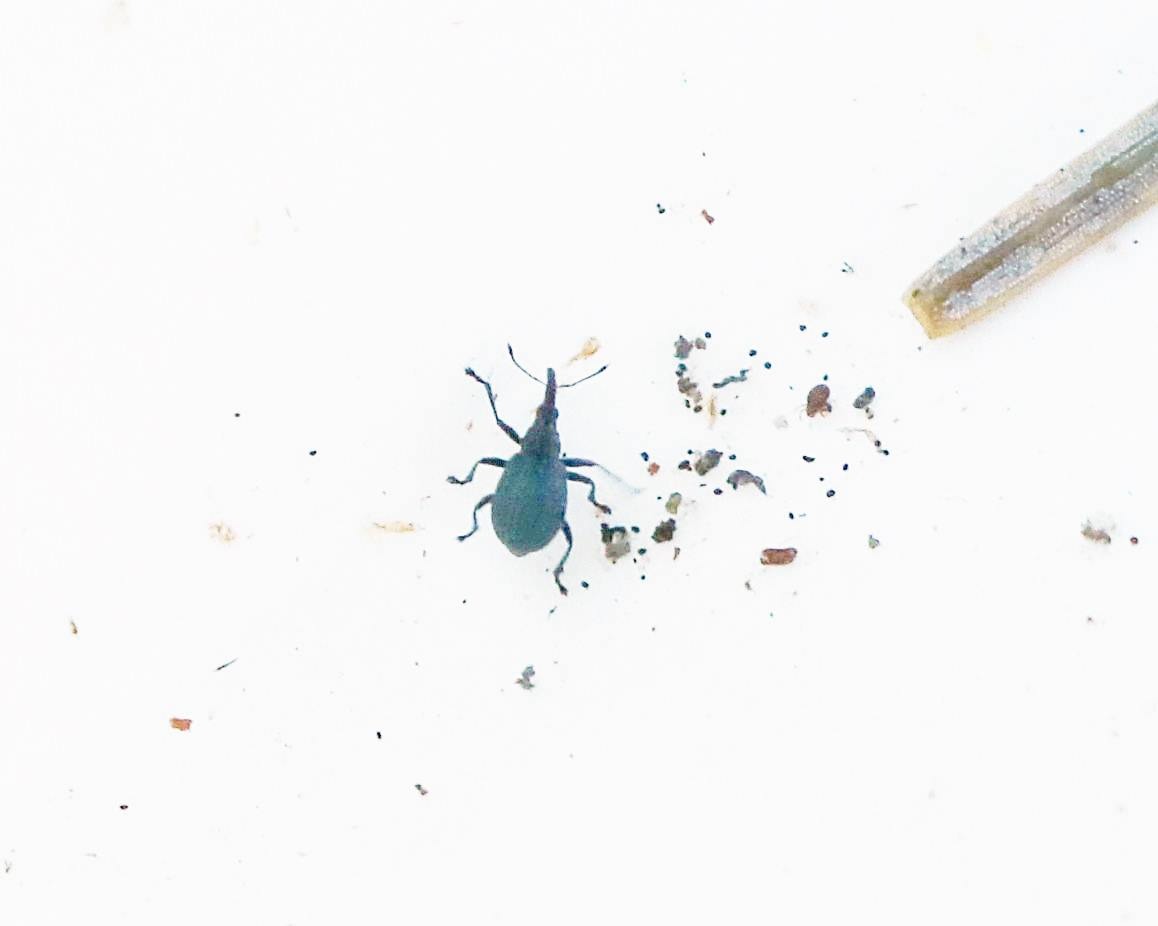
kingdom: Animalia
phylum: Arthropoda
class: Insecta
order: Coleoptera
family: Apionidae
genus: Cyanapion
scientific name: Cyanapion spencii
